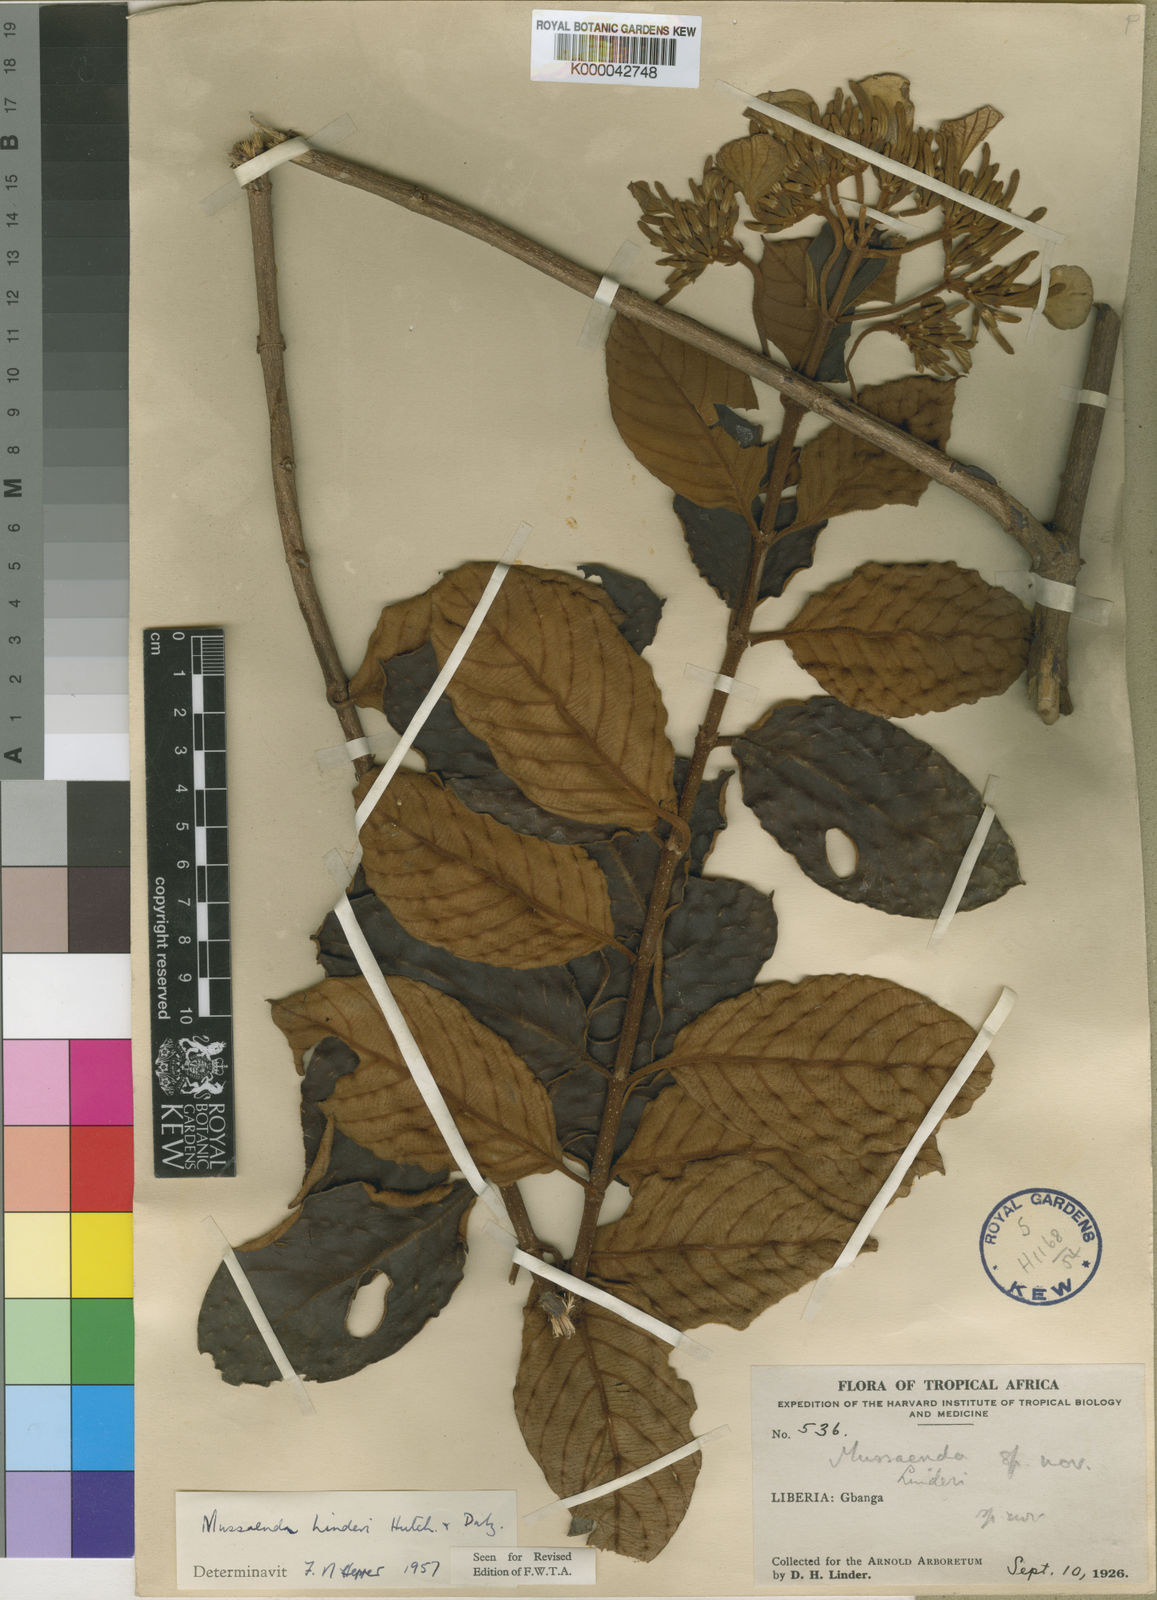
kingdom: Plantae
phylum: Tracheophyta
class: Magnoliopsida
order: Gentianales
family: Rubiaceae
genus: Mussaenda
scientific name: Mussaenda linderi
